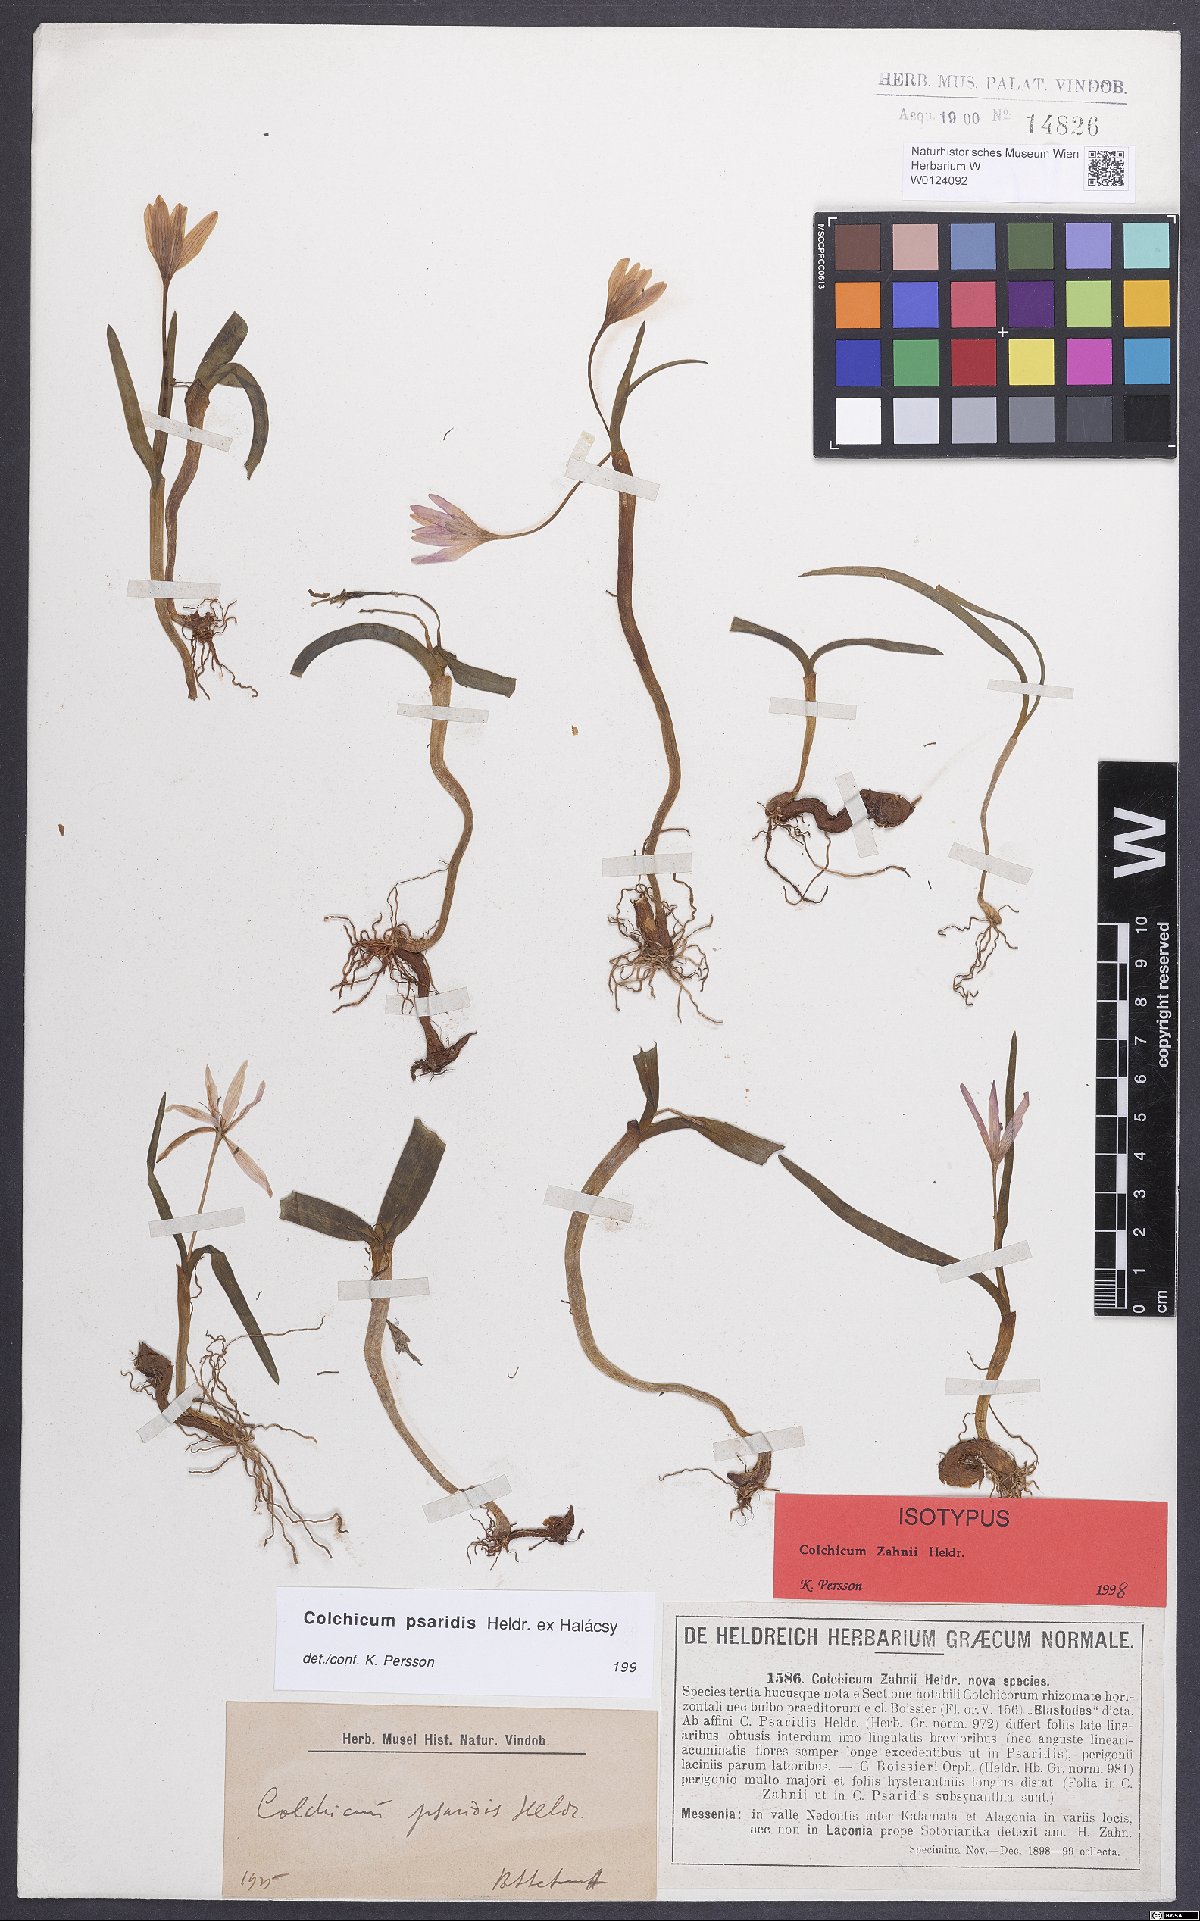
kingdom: Plantae
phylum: Tracheophyta
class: Liliopsida
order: Liliales
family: Colchicaceae
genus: Colchicum
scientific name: Colchicum zahnii
